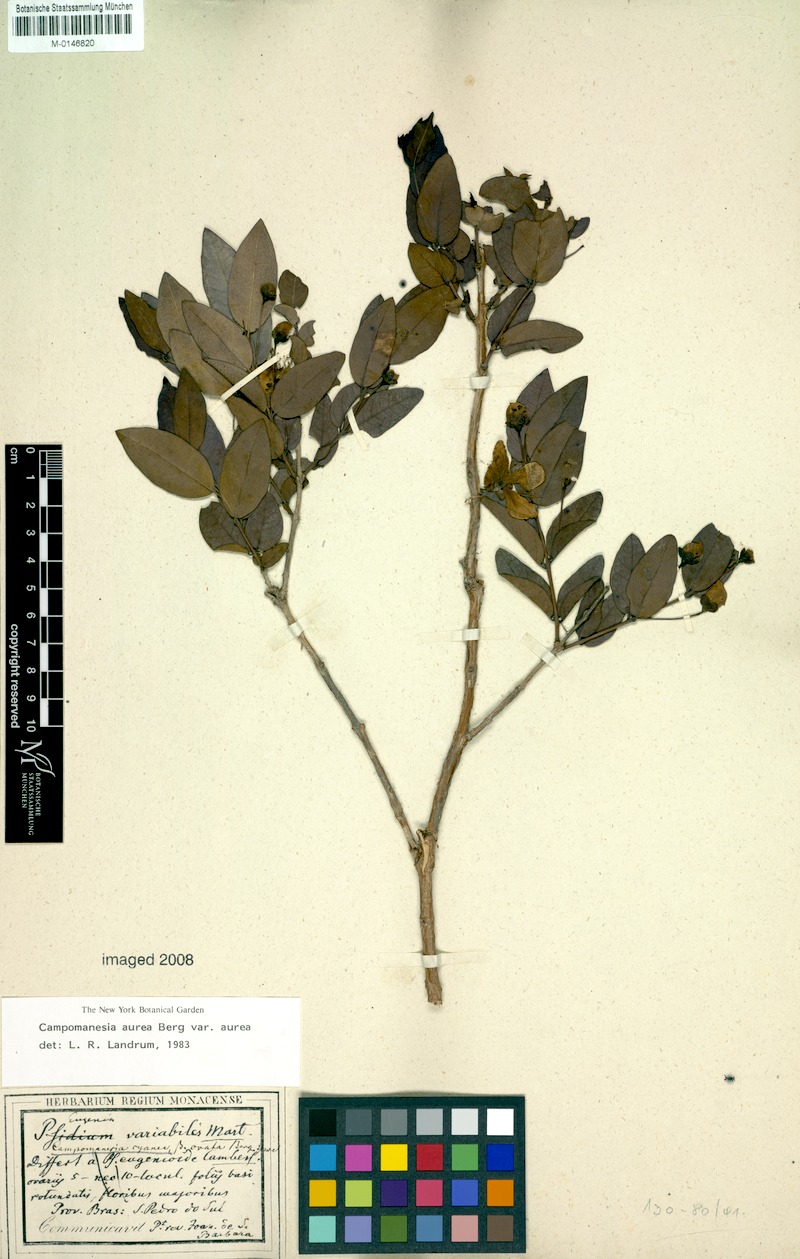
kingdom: Plantae
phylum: Tracheophyta
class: Magnoliopsida
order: Myrtales
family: Myrtaceae
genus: Campomanesia
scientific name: Campomanesia aurea
